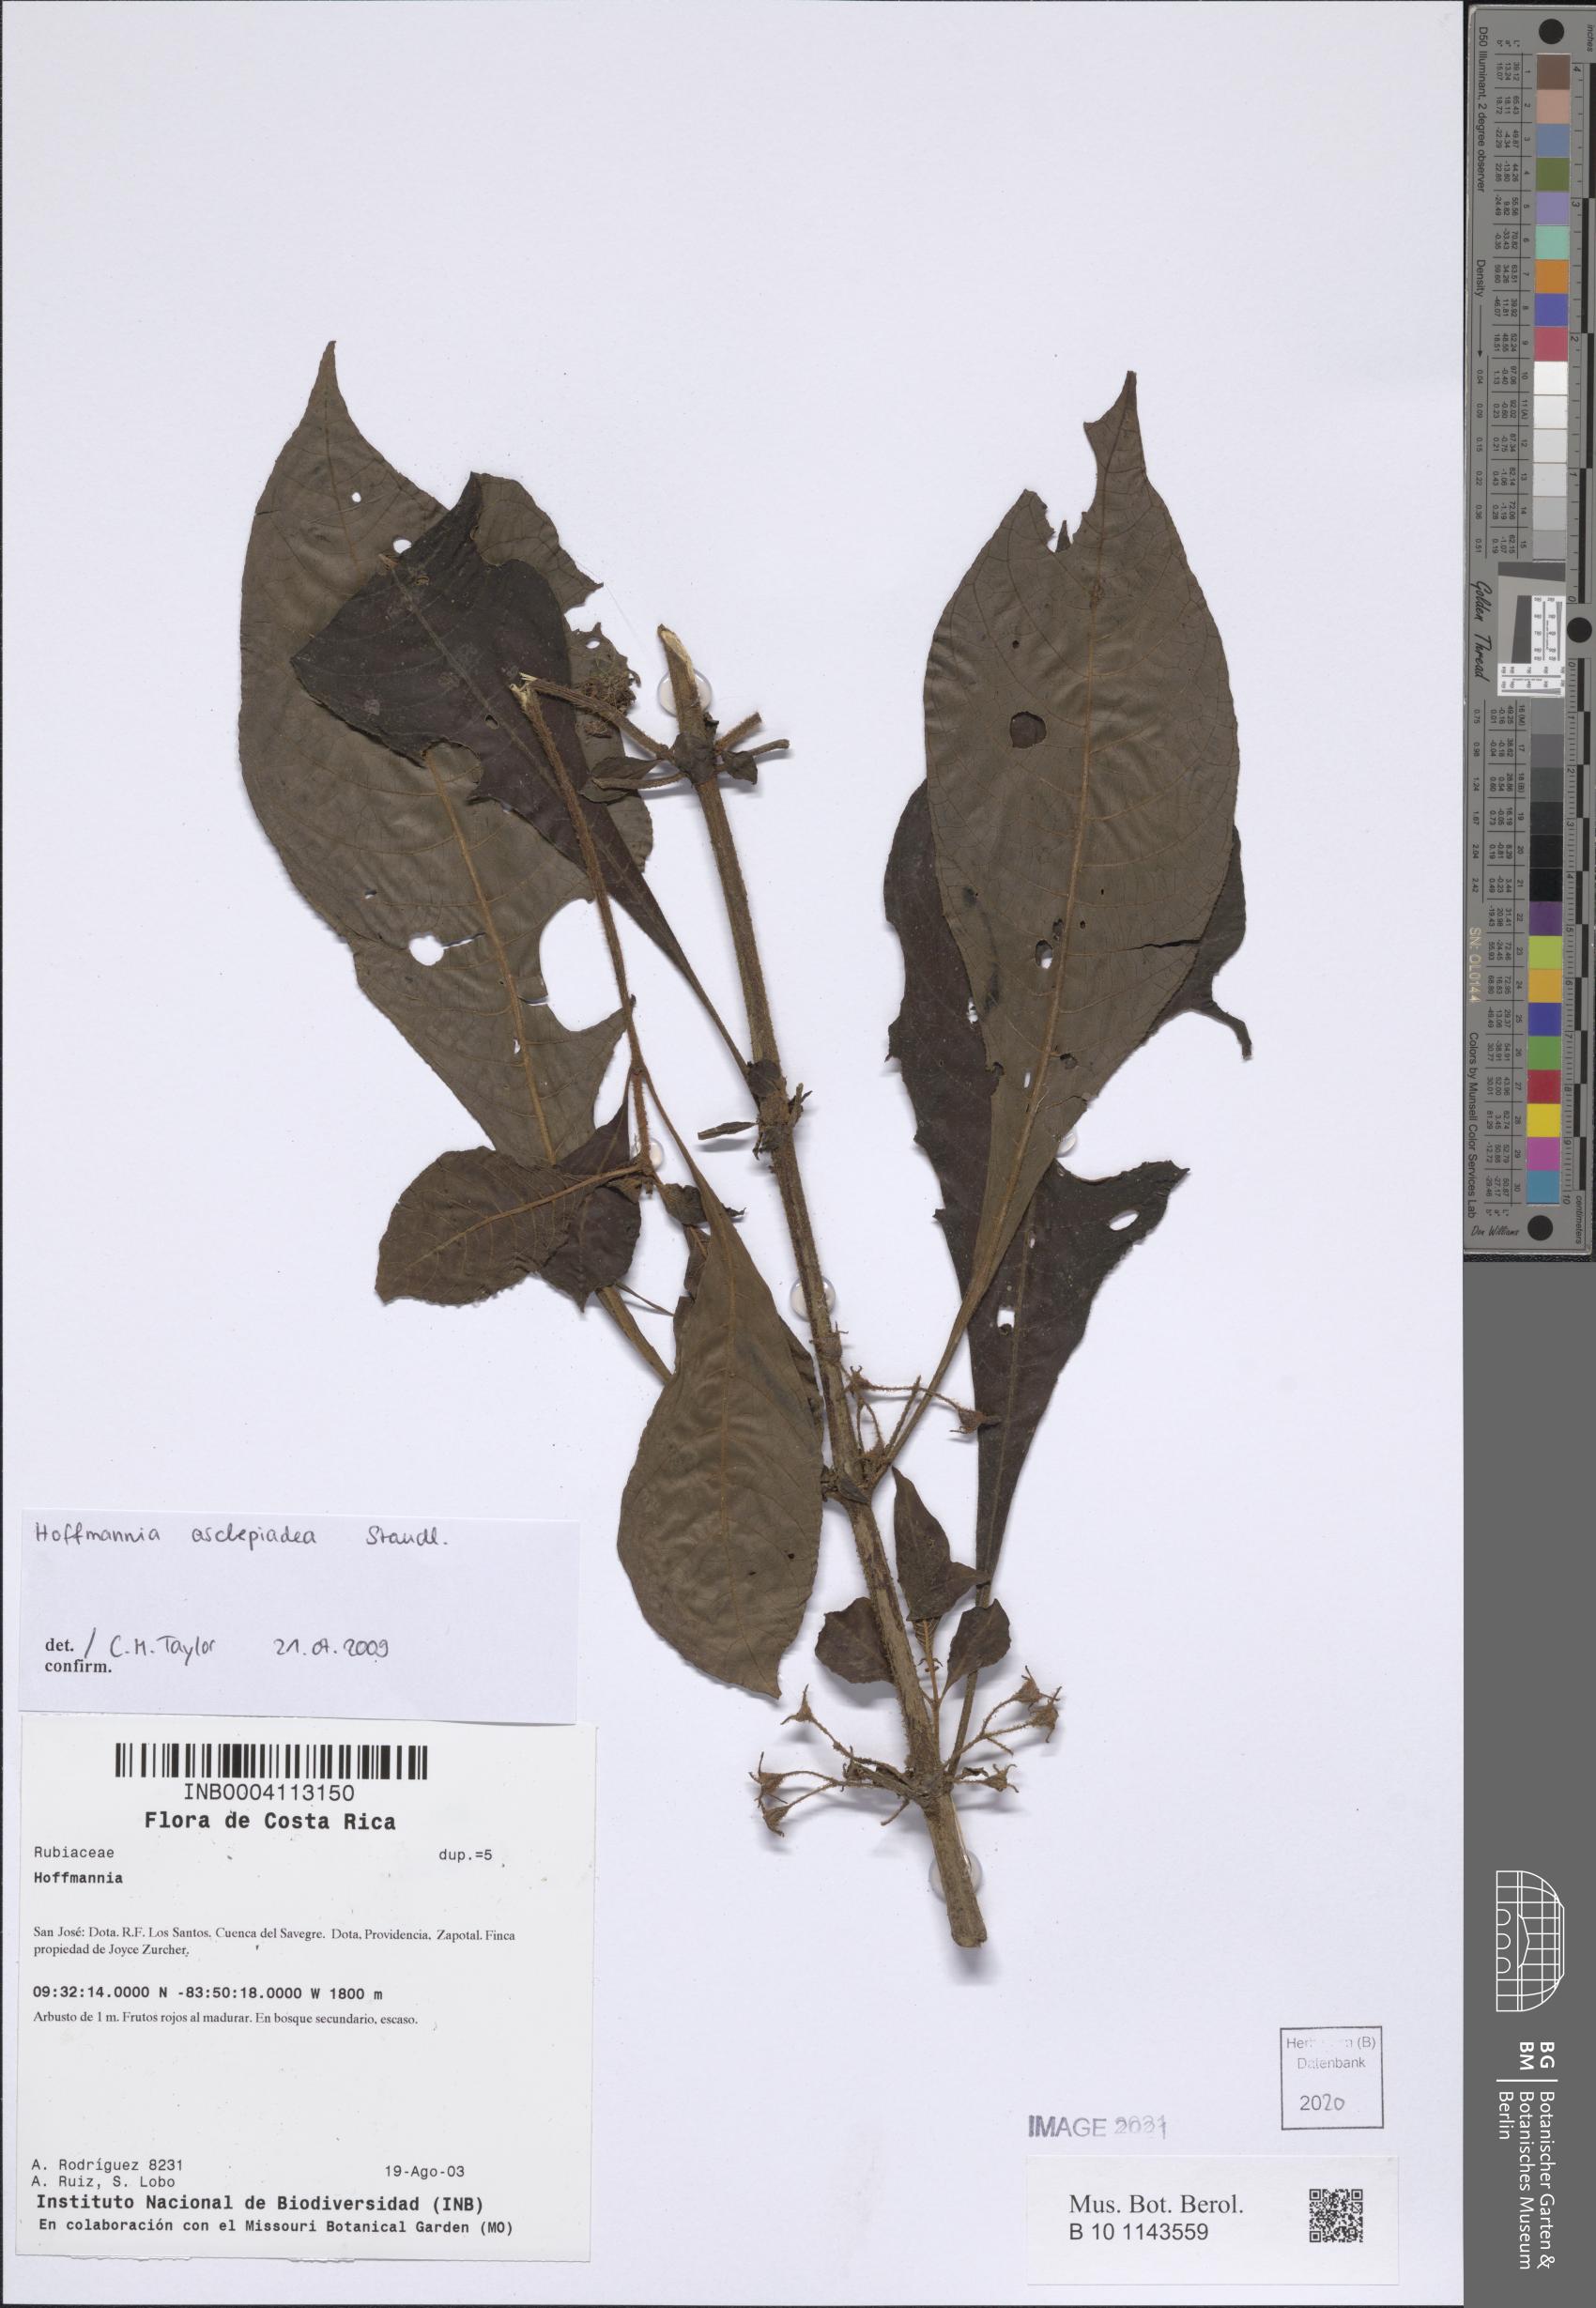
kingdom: Plantae
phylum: Tracheophyta
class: Magnoliopsida
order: Gentianales
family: Rubiaceae
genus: Hoffmannia
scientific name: Hoffmannia asclepiadea
